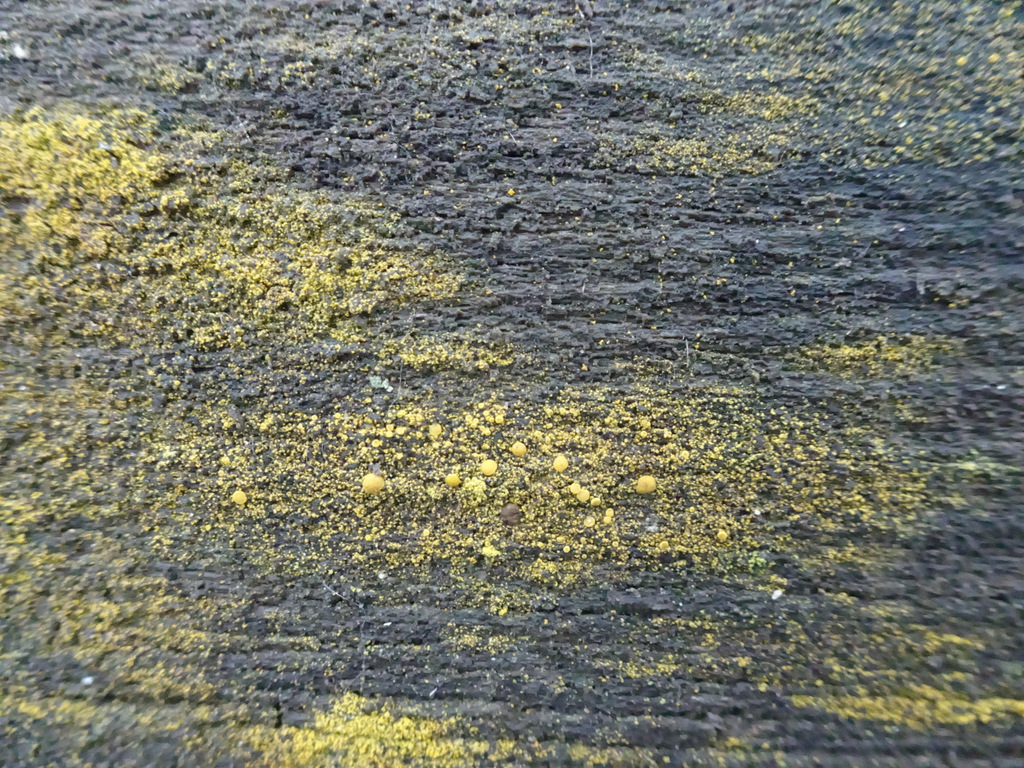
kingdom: Fungi
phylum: Ascomycota
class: Candelariomycetes
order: Candelariales
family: Candelariaceae
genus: Candelariella
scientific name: Candelariella vitellina
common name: almindelig æggeblommelav
